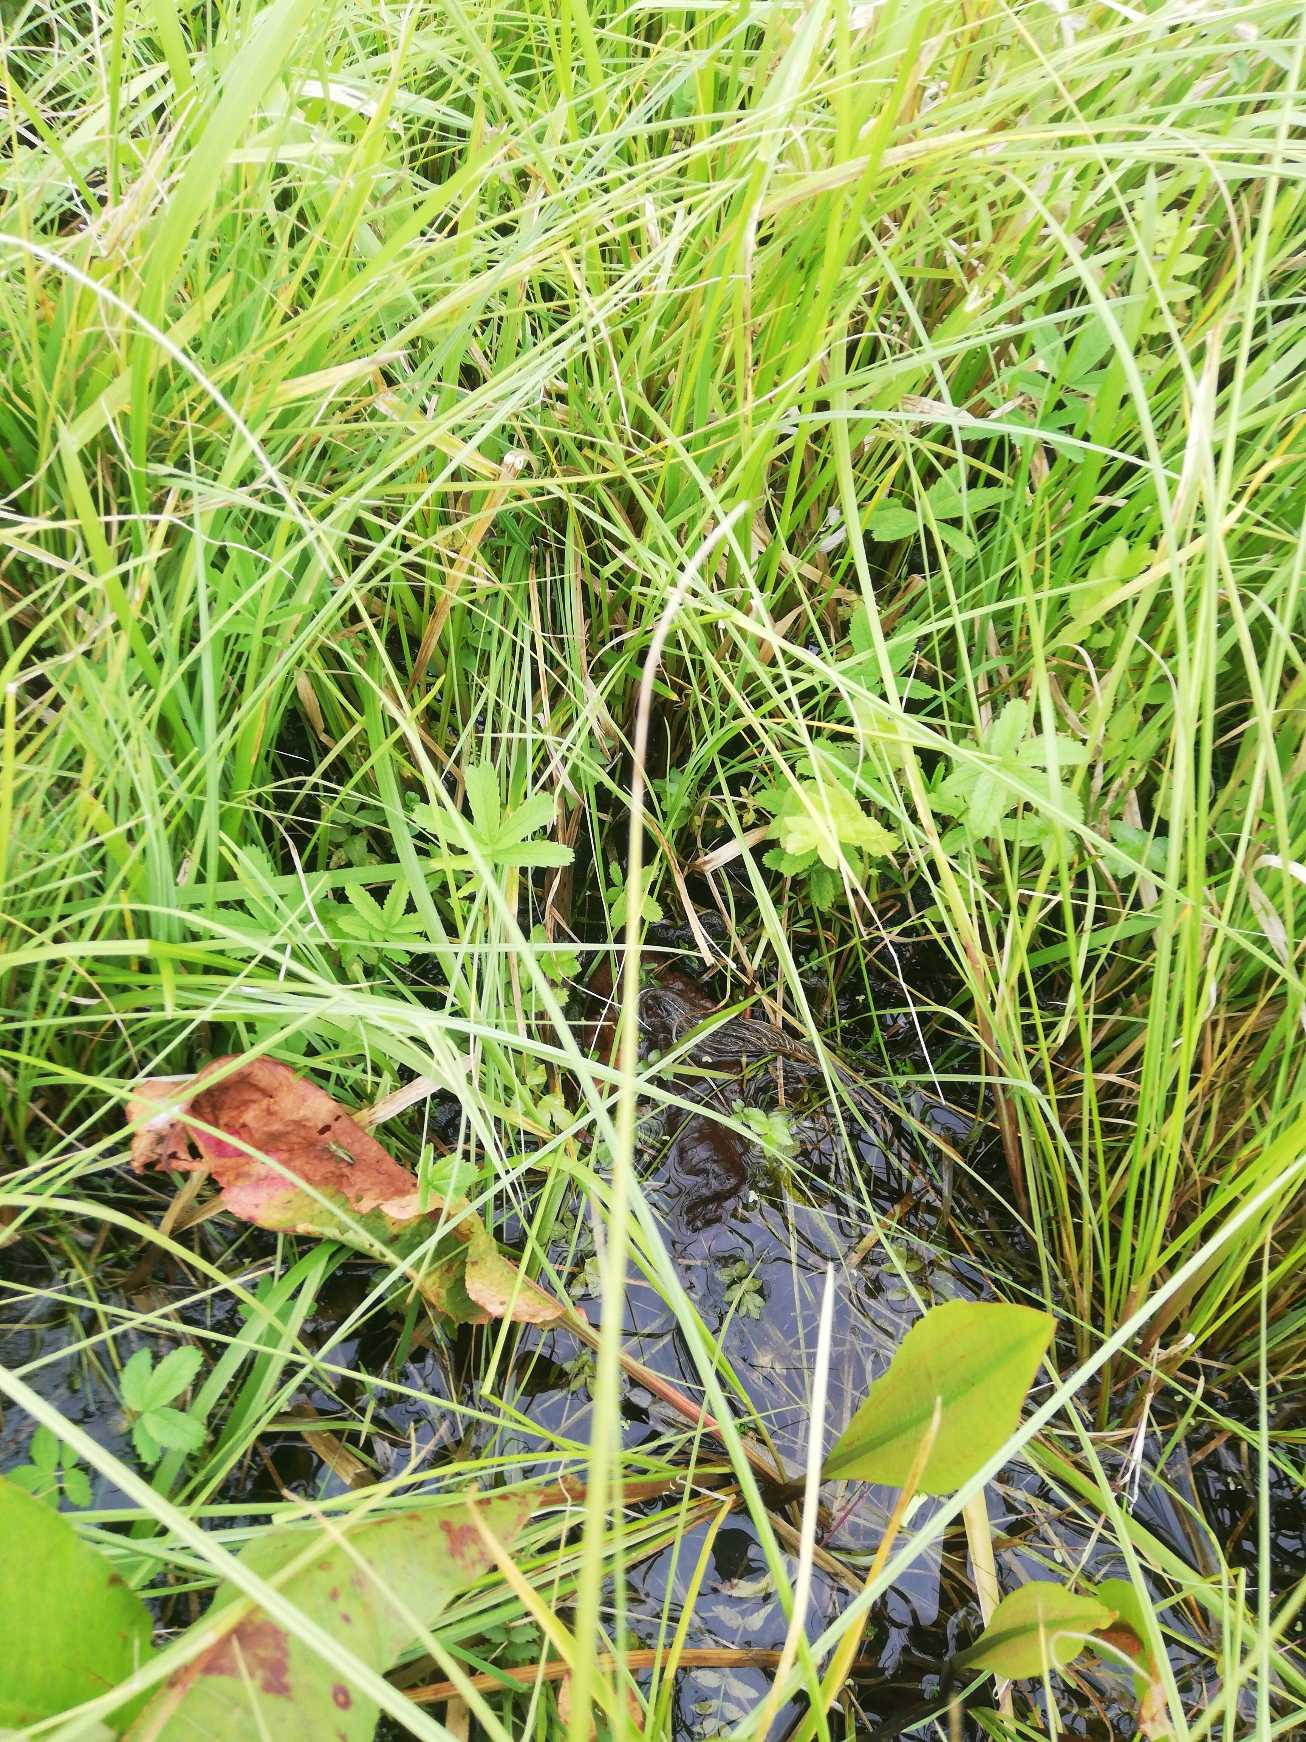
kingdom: Plantae
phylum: Tracheophyta
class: Magnoliopsida
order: Rosales
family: Rosaceae
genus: Comarum
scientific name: Comarum palustre
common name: Kragefod
